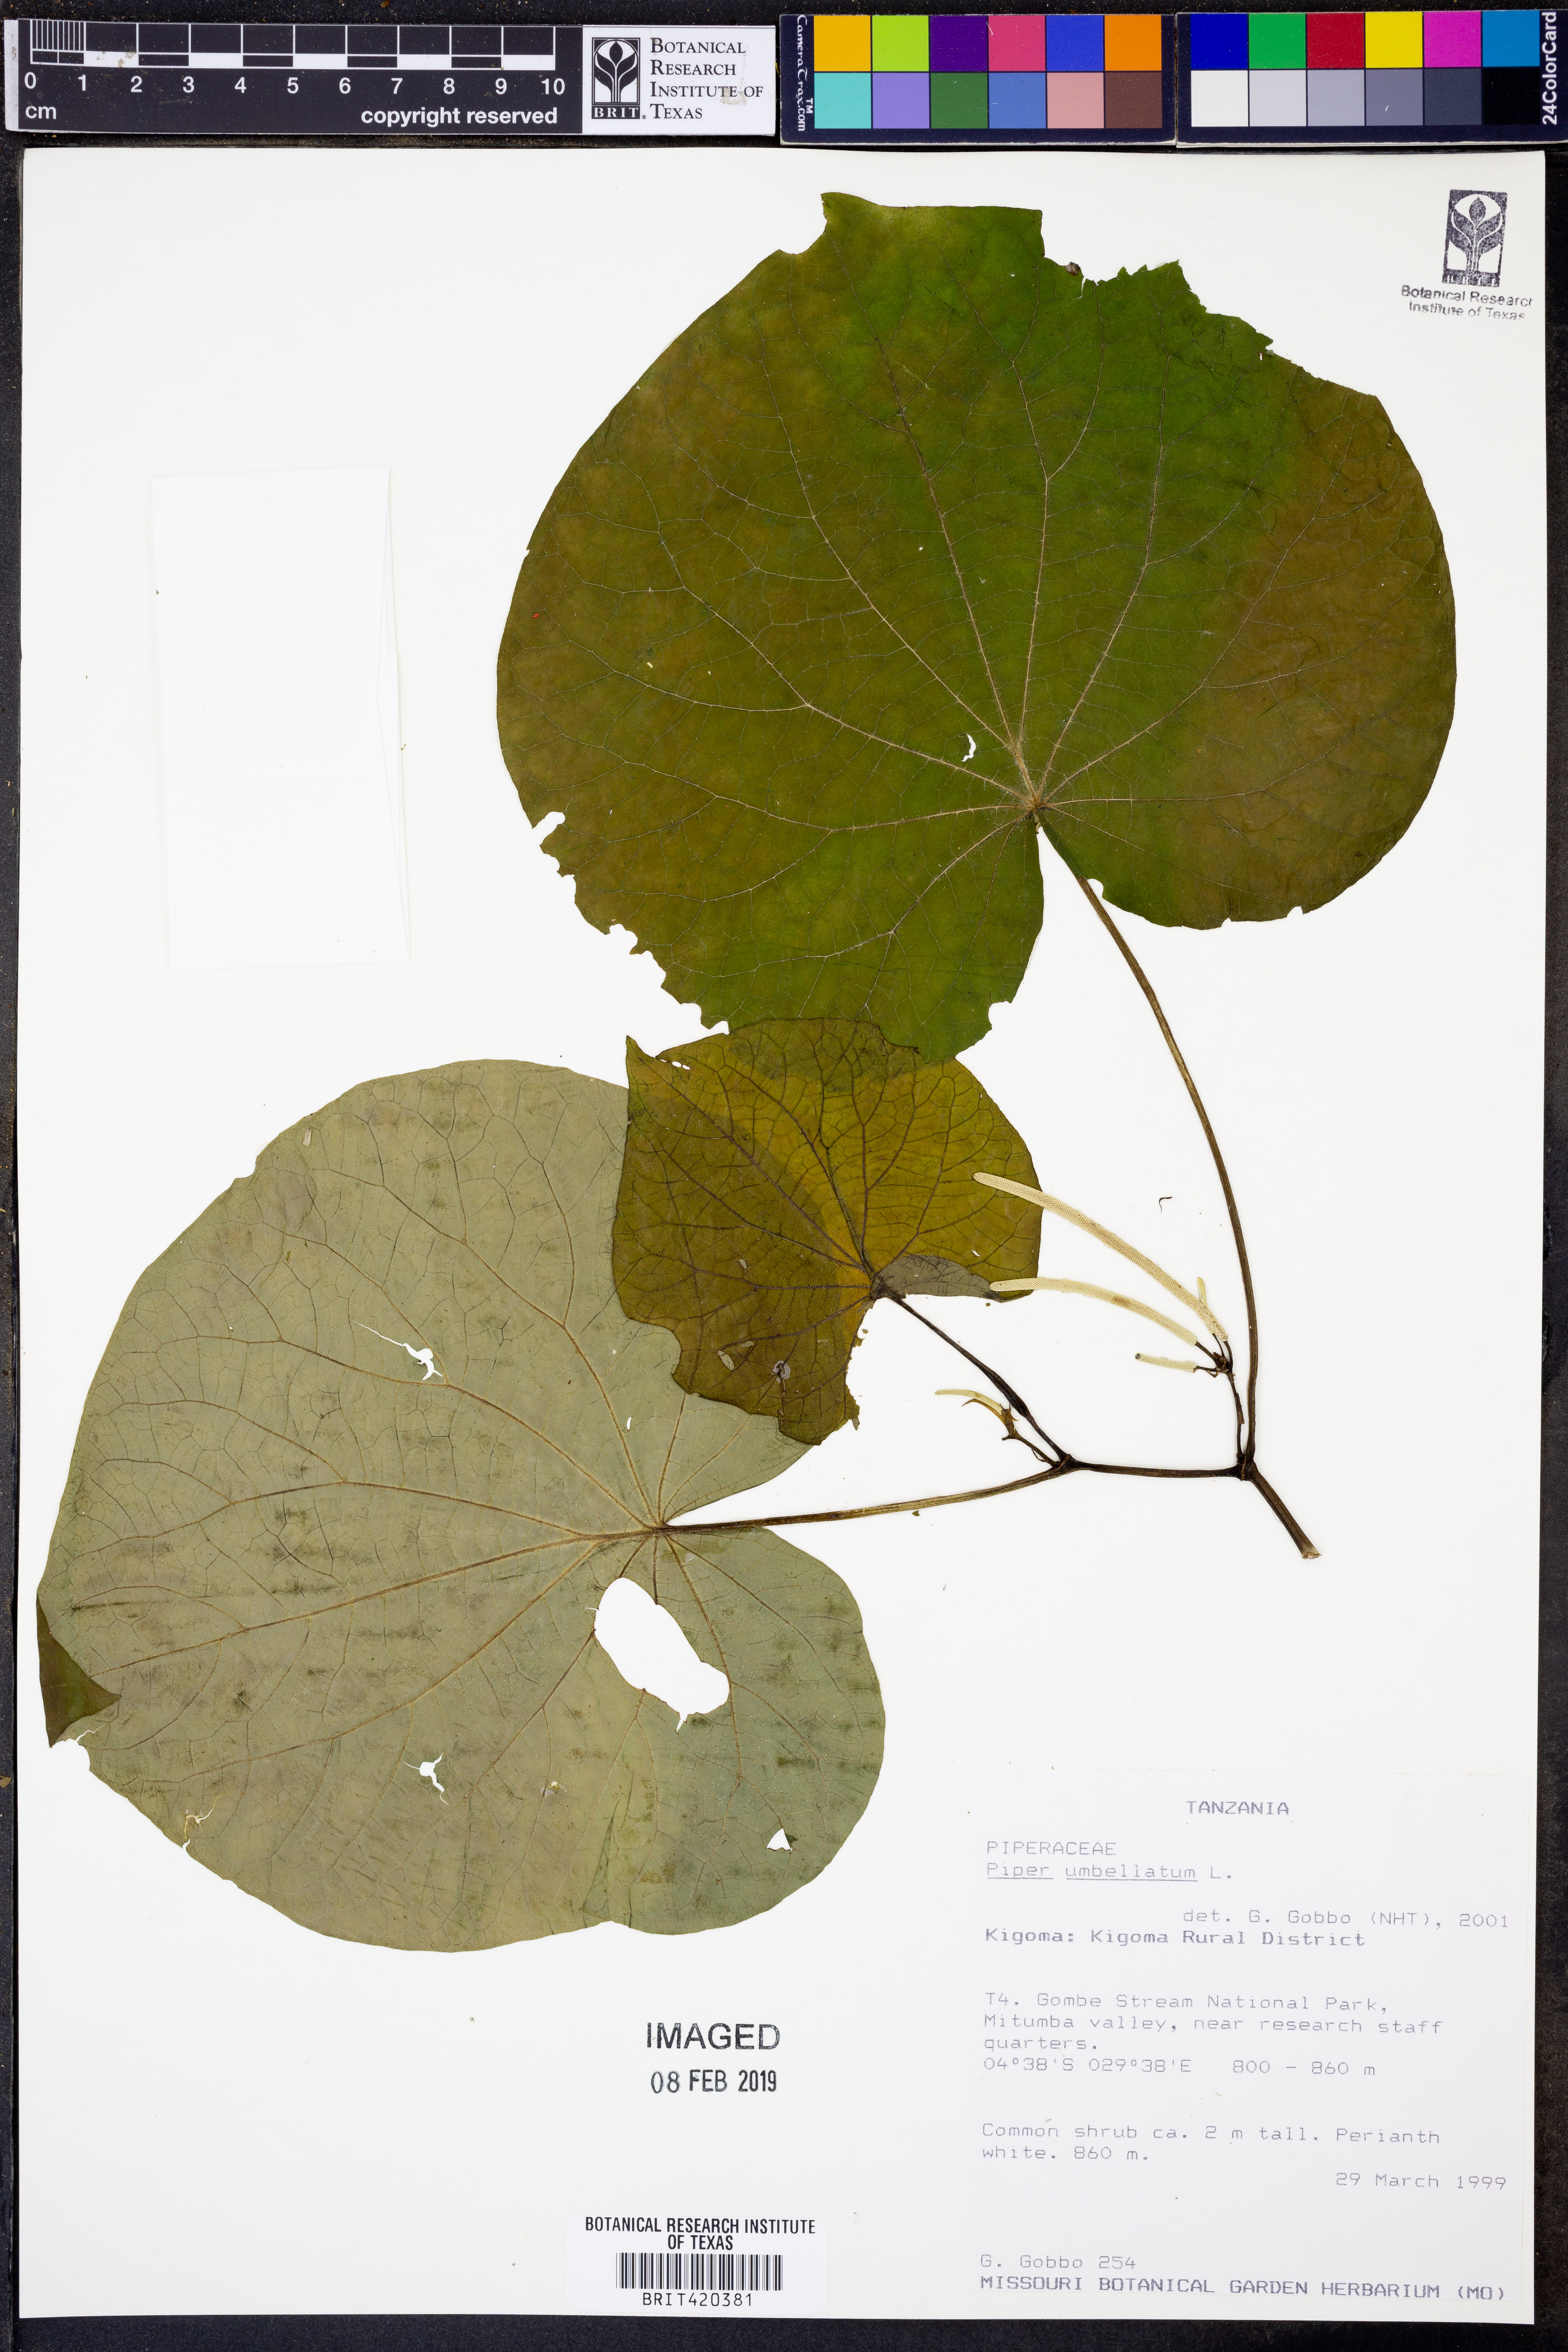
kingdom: Plantae
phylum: Tracheophyta
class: Magnoliopsida
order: Piperales
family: Piperaceae
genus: Piper
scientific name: Piper umbellatum
